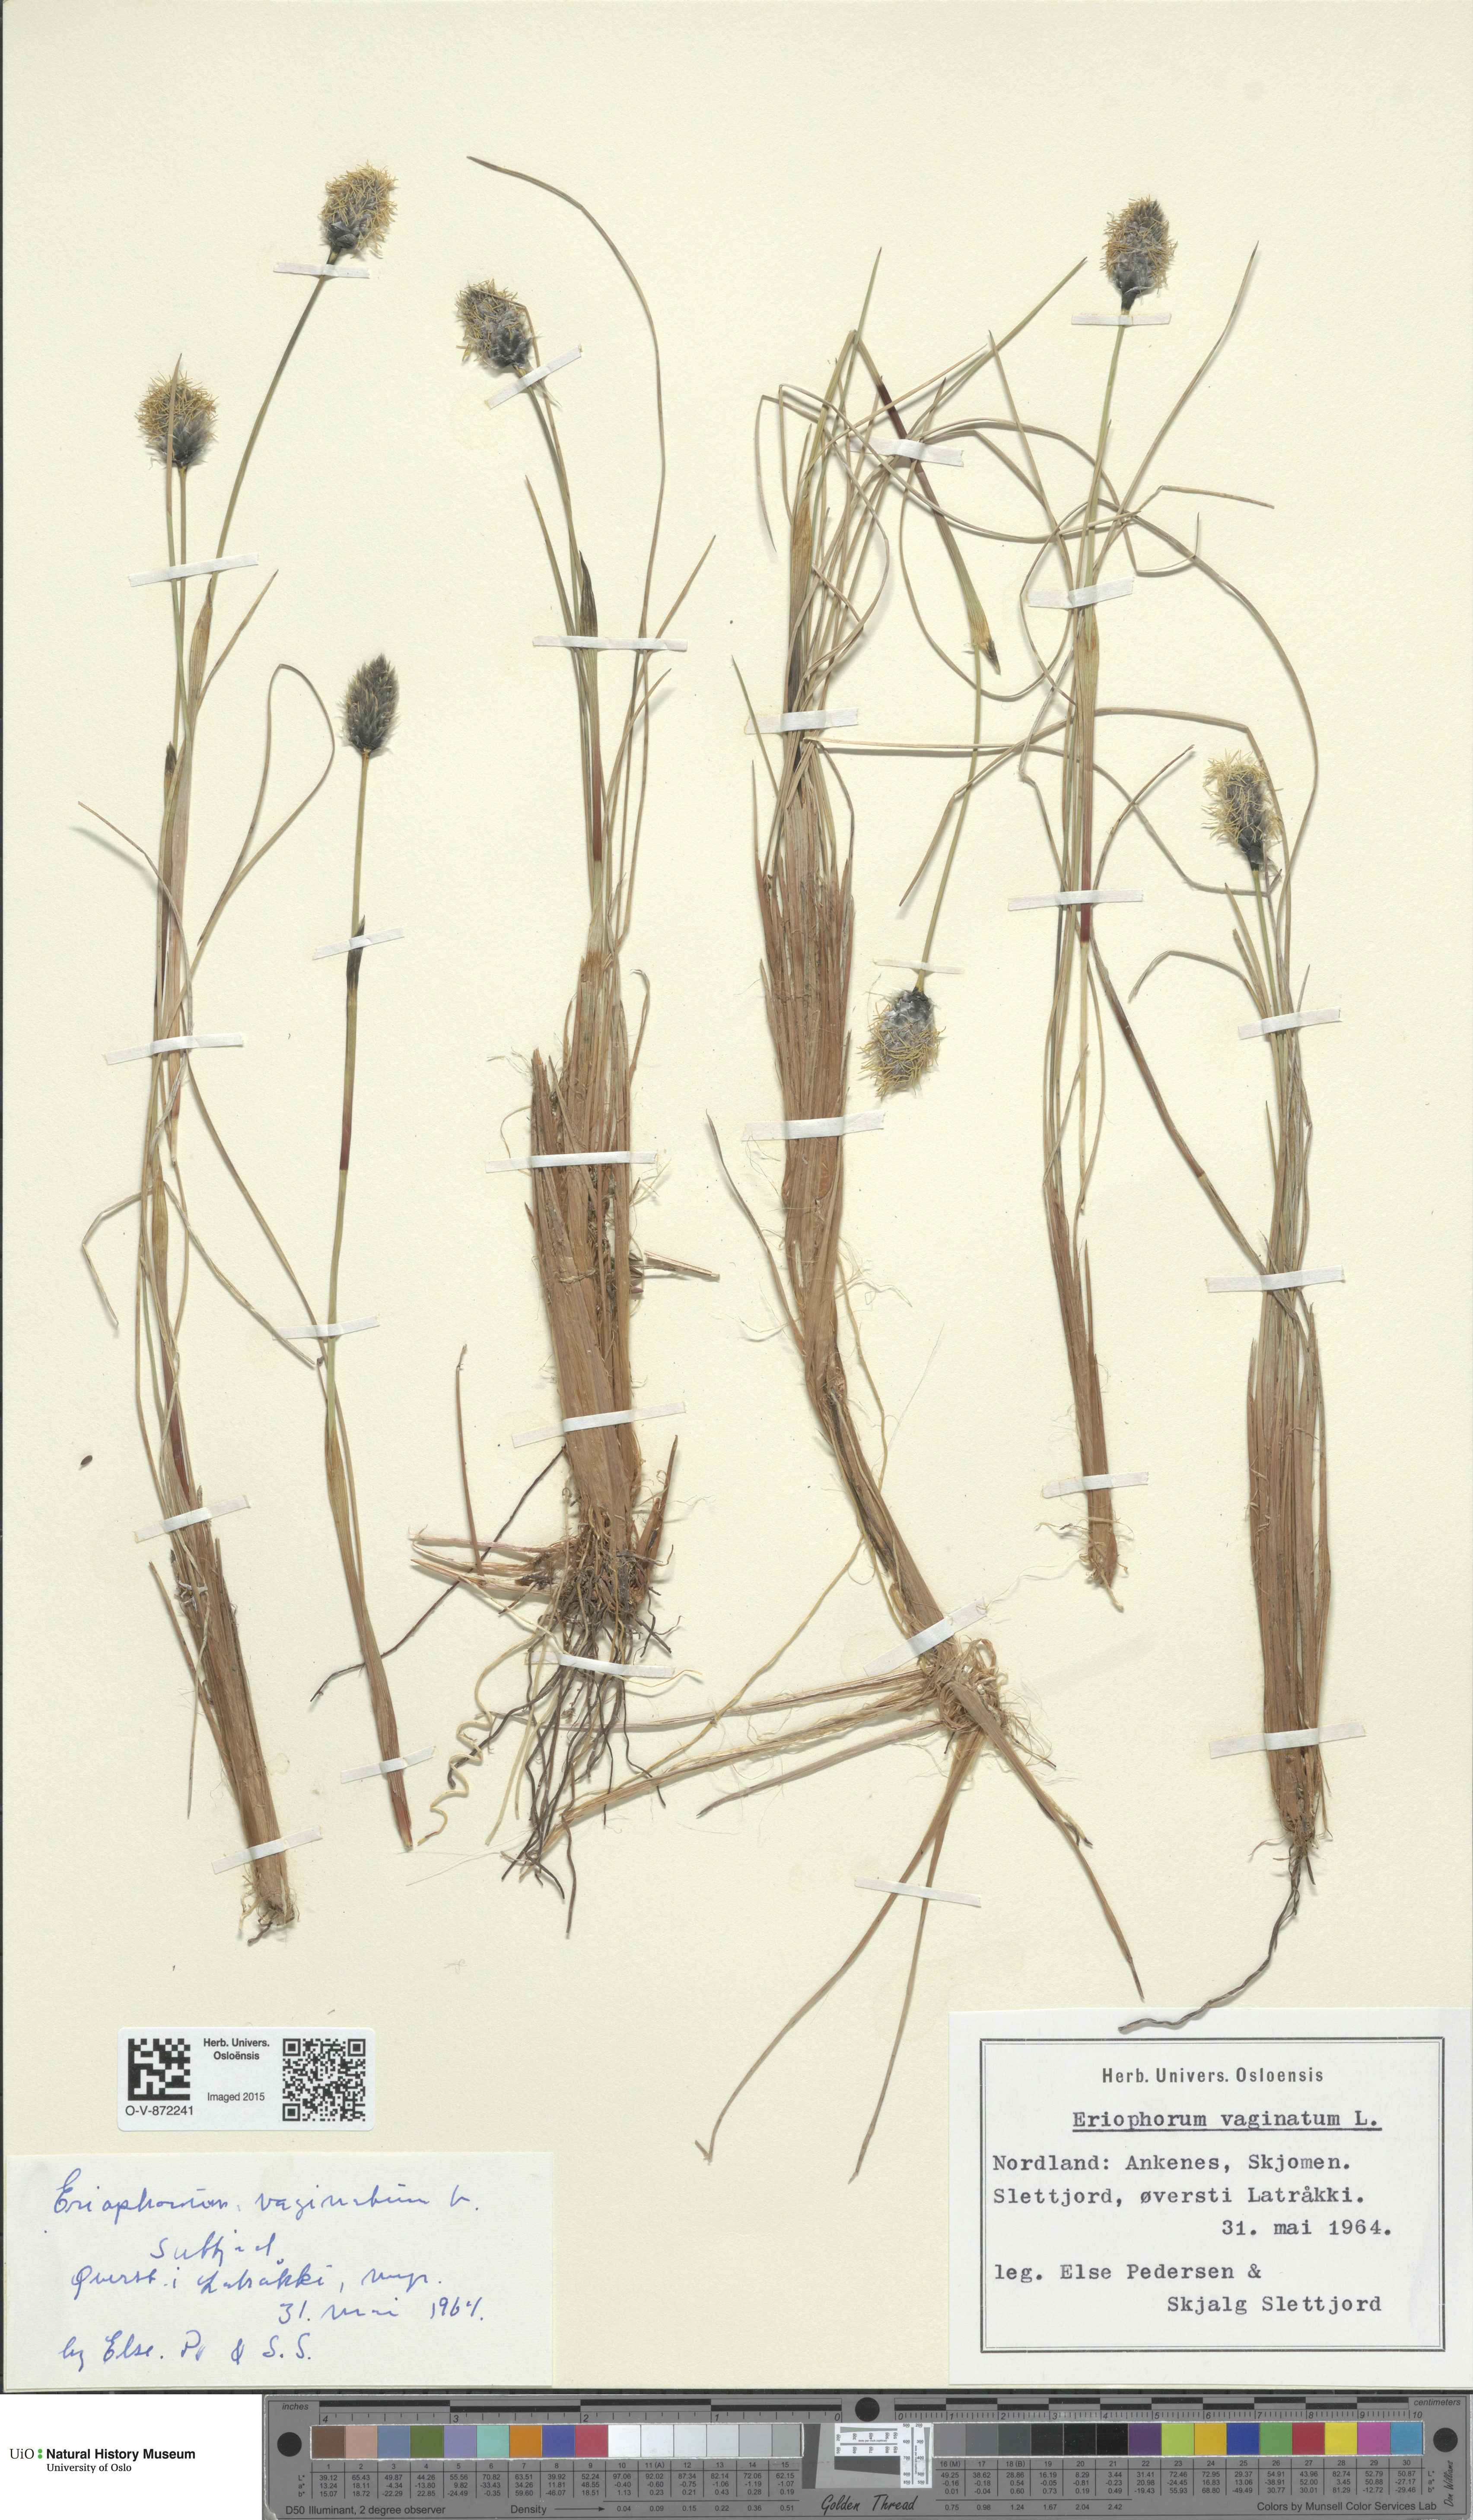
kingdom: Plantae
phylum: Tracheophyta
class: Liliopsida
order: Poales
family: Cyperaceae
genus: Eriophorum
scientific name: Eriophorum vaginatum
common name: Hare's-tail cottongrass
